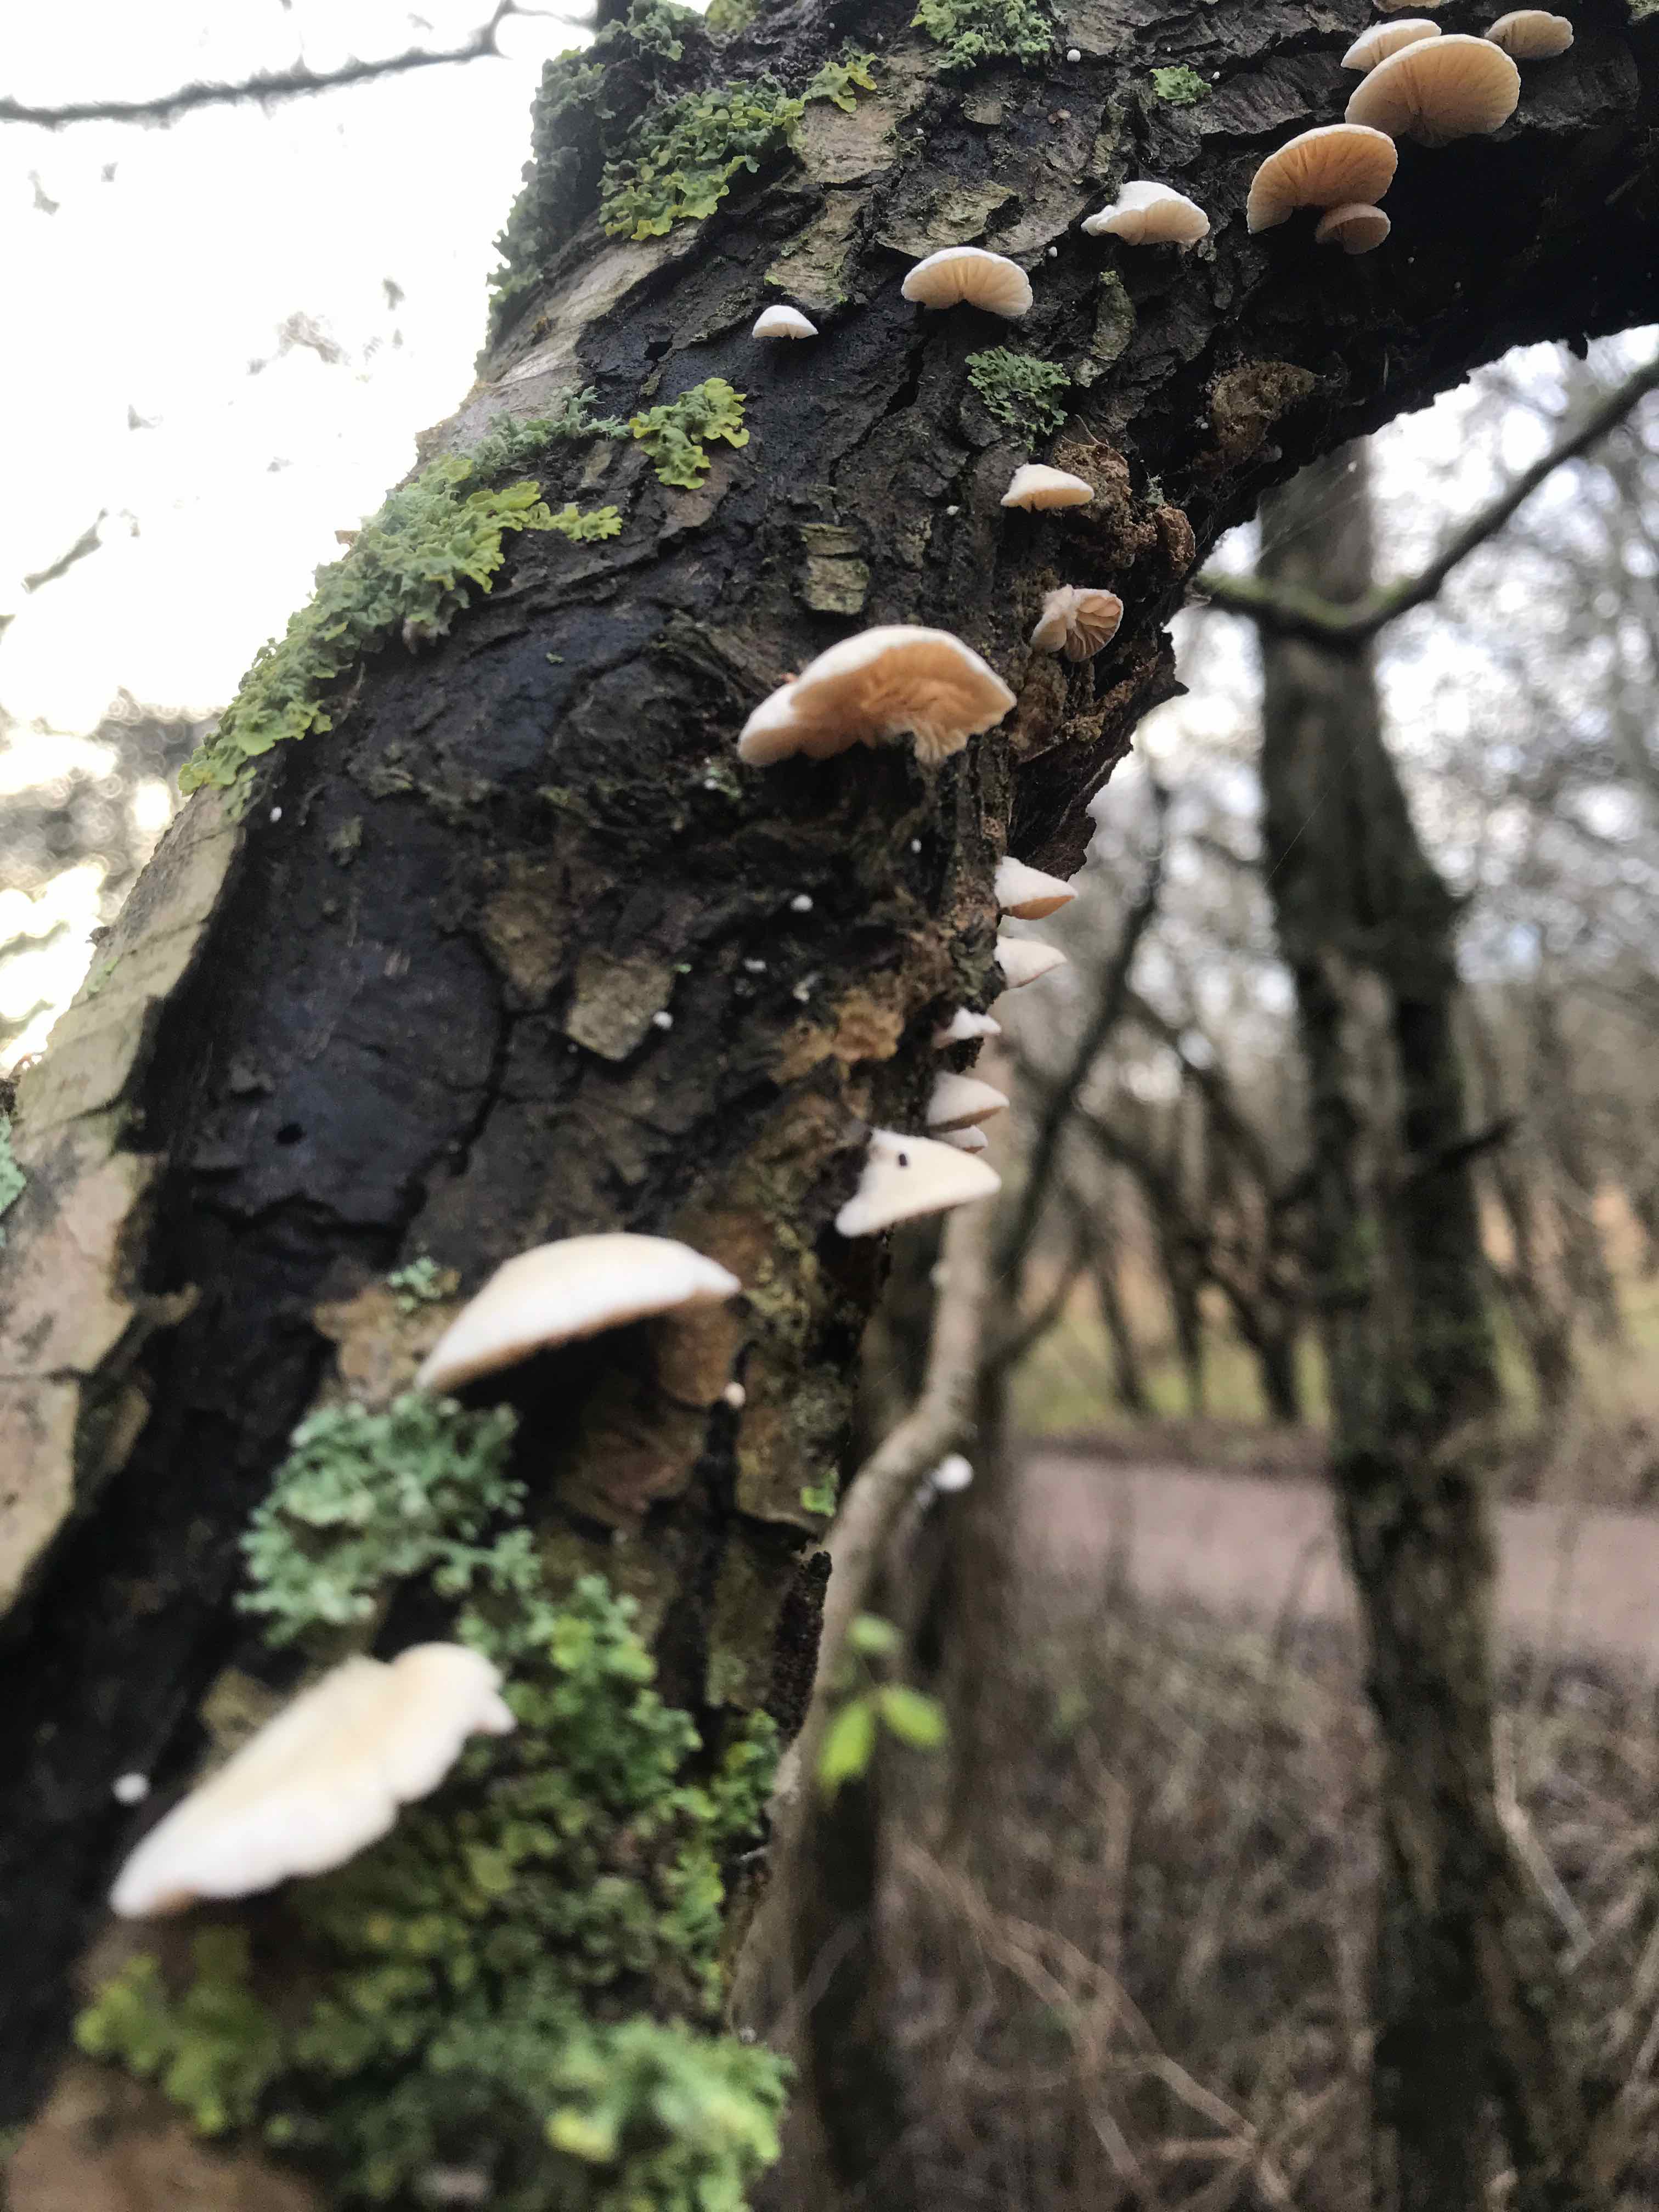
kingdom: Fungi
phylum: Basidiomycota
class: Agaricomycetes
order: Agaricales
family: Crepidotaceae
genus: Crepidotus
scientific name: Crepidotus
